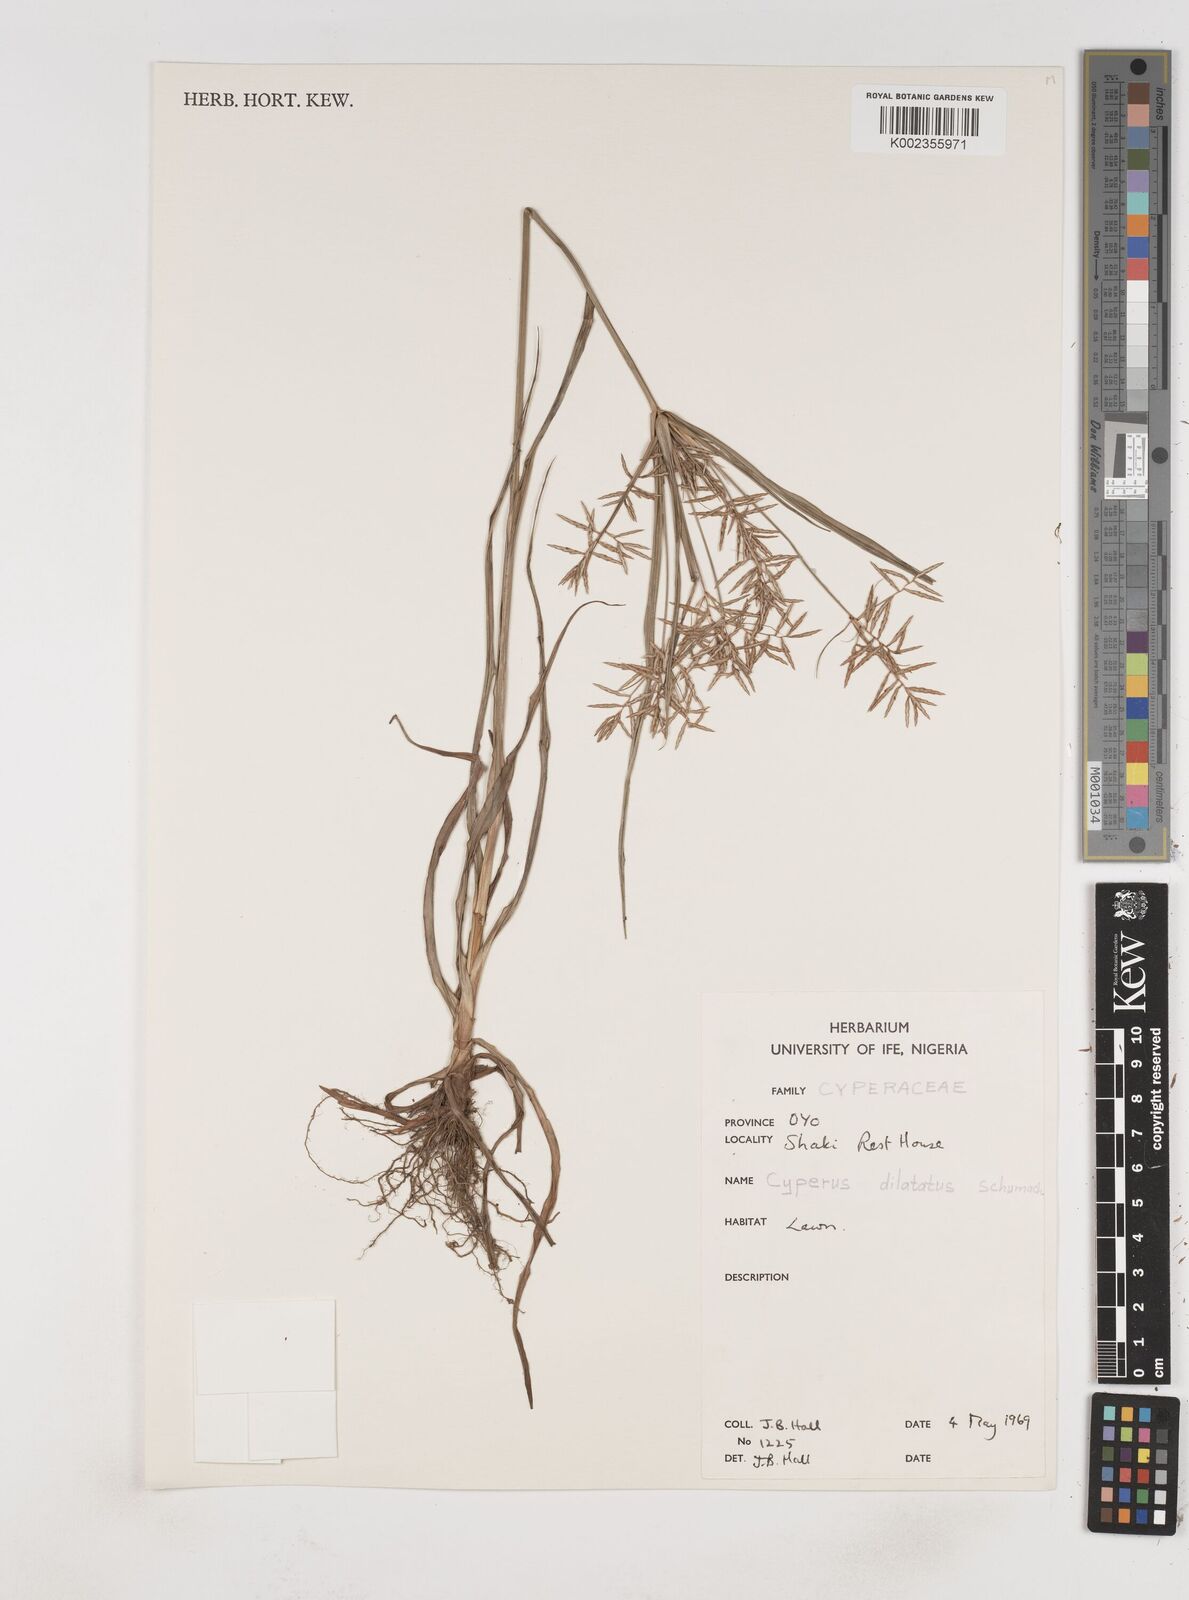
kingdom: Plantae
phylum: Tracheophyta
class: Liliopsida
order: Poales
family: Cyperaceae
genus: Cyperus
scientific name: Cyperus dilatatus
